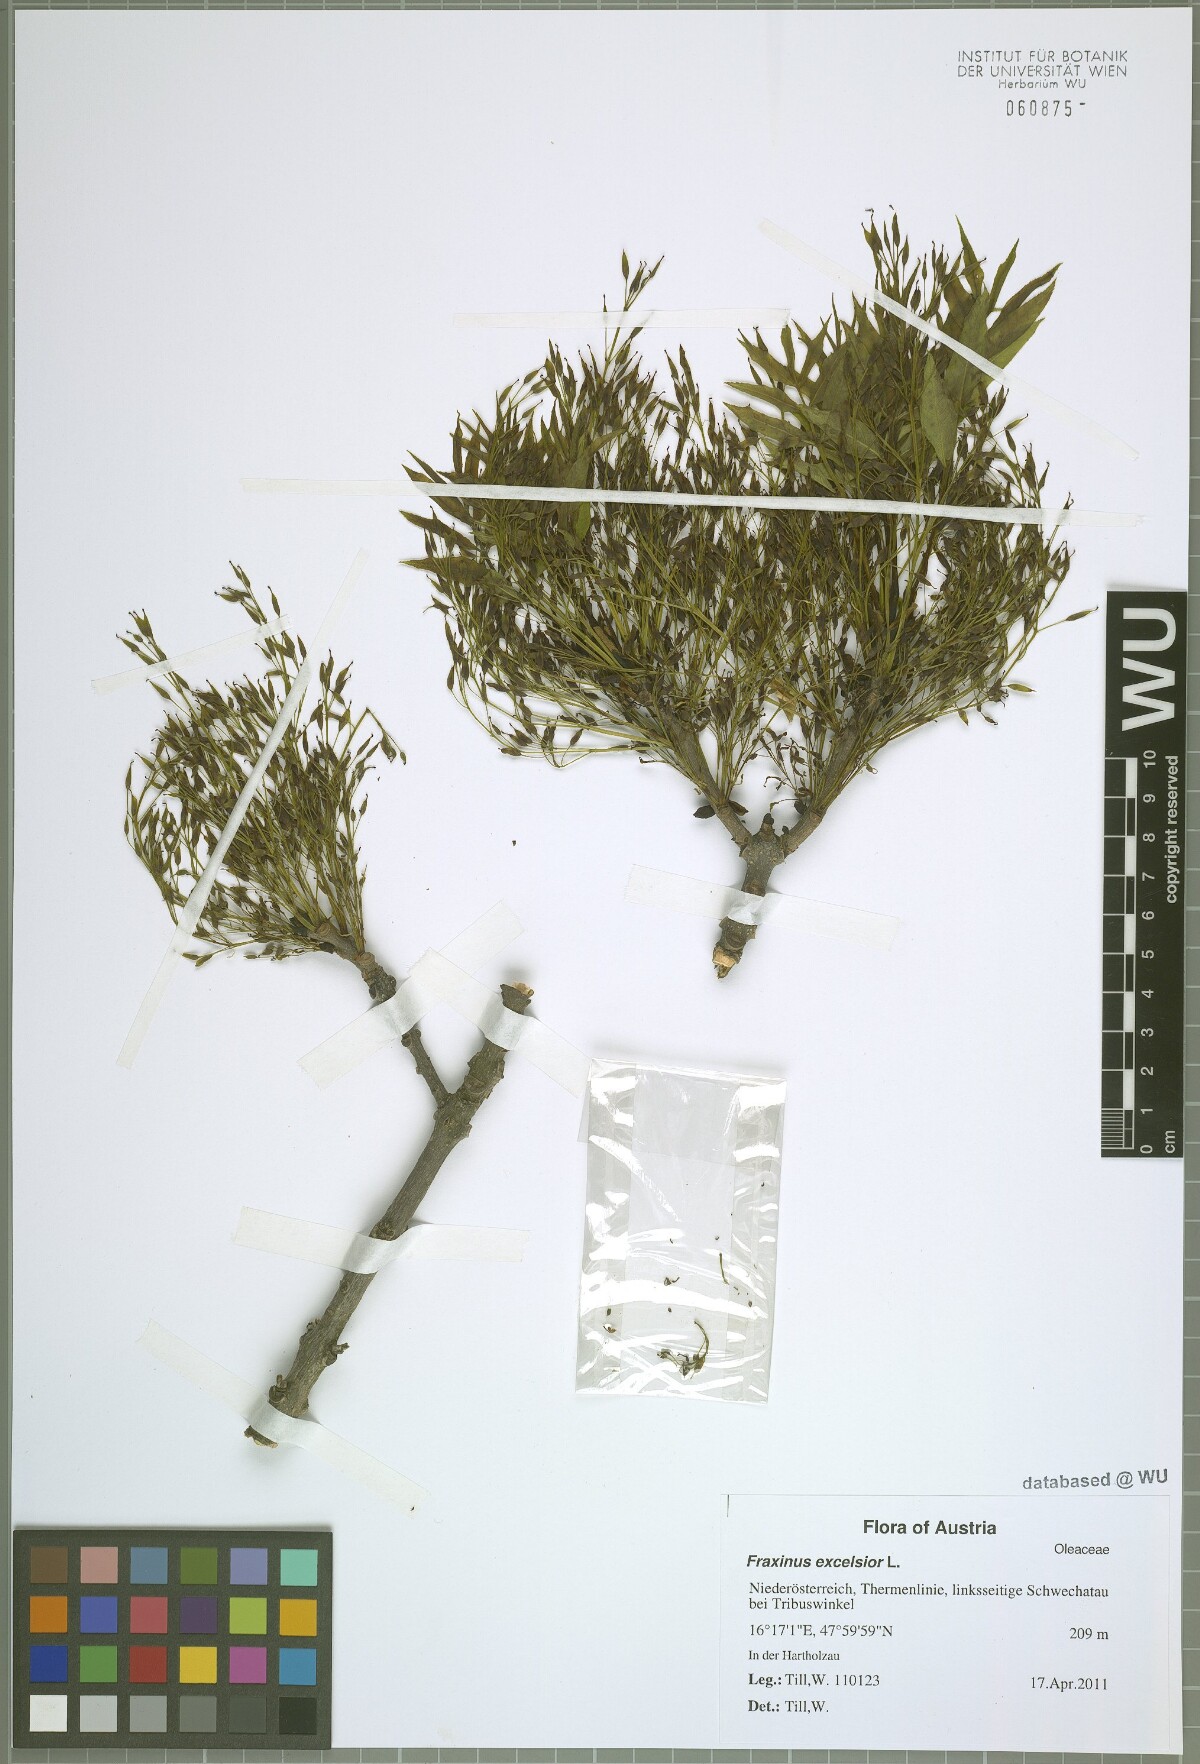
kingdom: Plantae
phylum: Tracheophyta
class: Magnoliopsida
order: Lamiales
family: Oleaceae
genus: Fraxinus
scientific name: Fraxinus excelsior
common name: European ash
